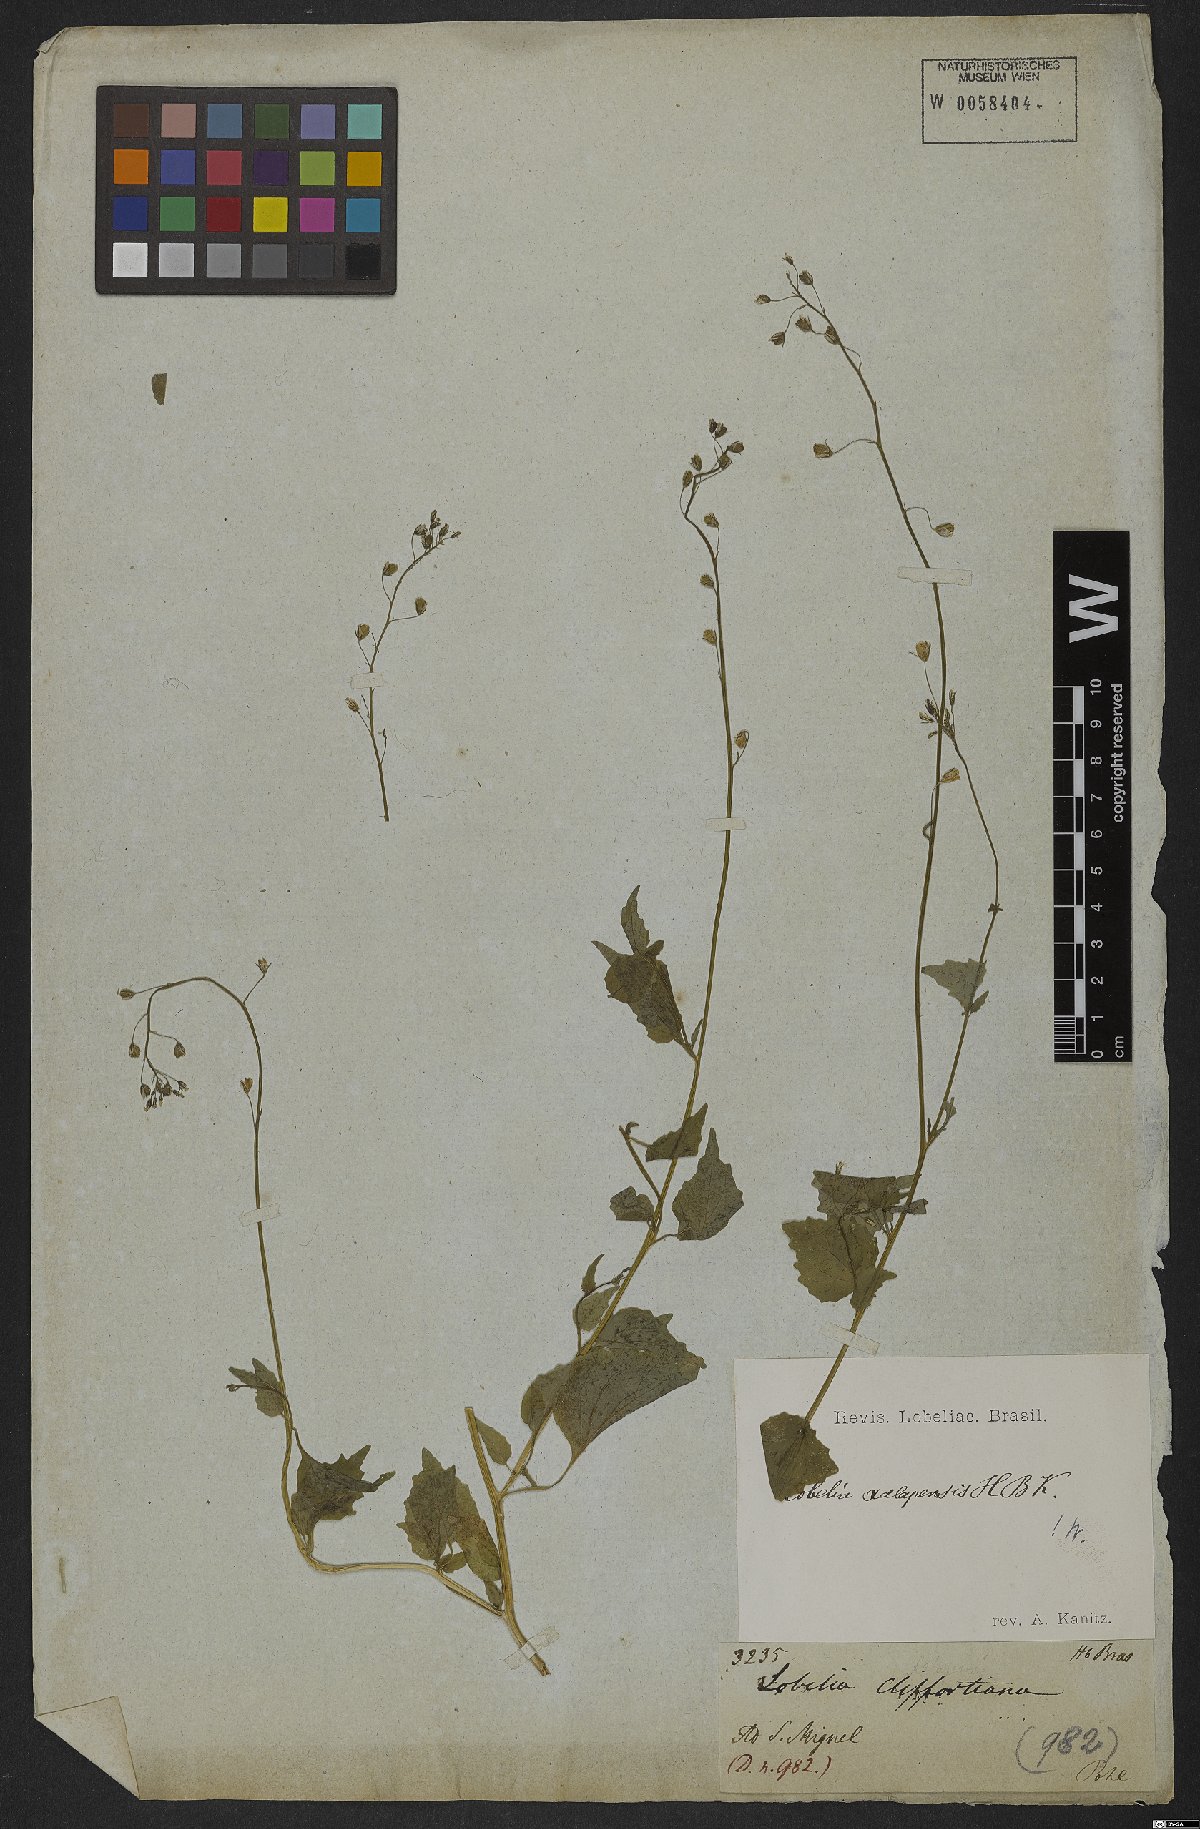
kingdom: Plantae
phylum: Tracheophyta
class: Magnoliopsida
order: Asterales
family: Campanulaceae
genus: Lobelia
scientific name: Lobelia xalapensis
